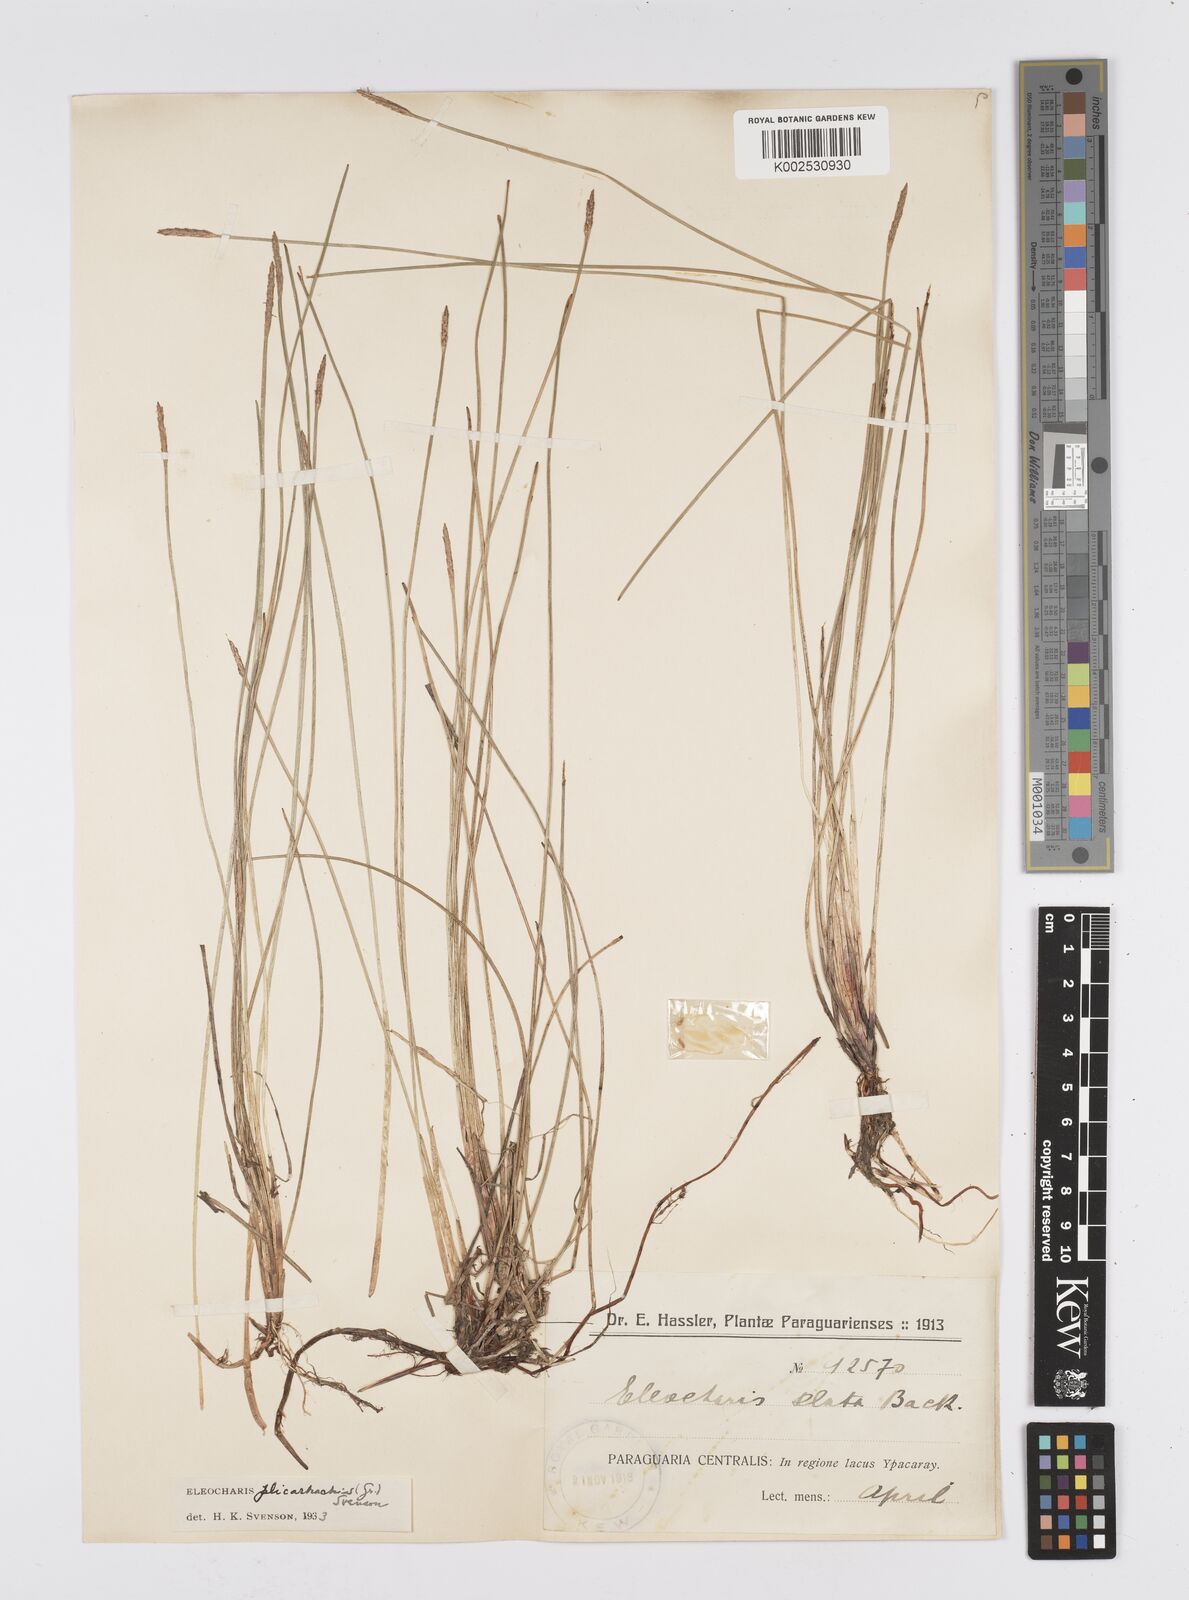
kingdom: Plantae
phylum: Tracheophyta
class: Liliopsida
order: Poales
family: Cyperaceae
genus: Eleocharis
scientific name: Eleocharis plicarhachis
